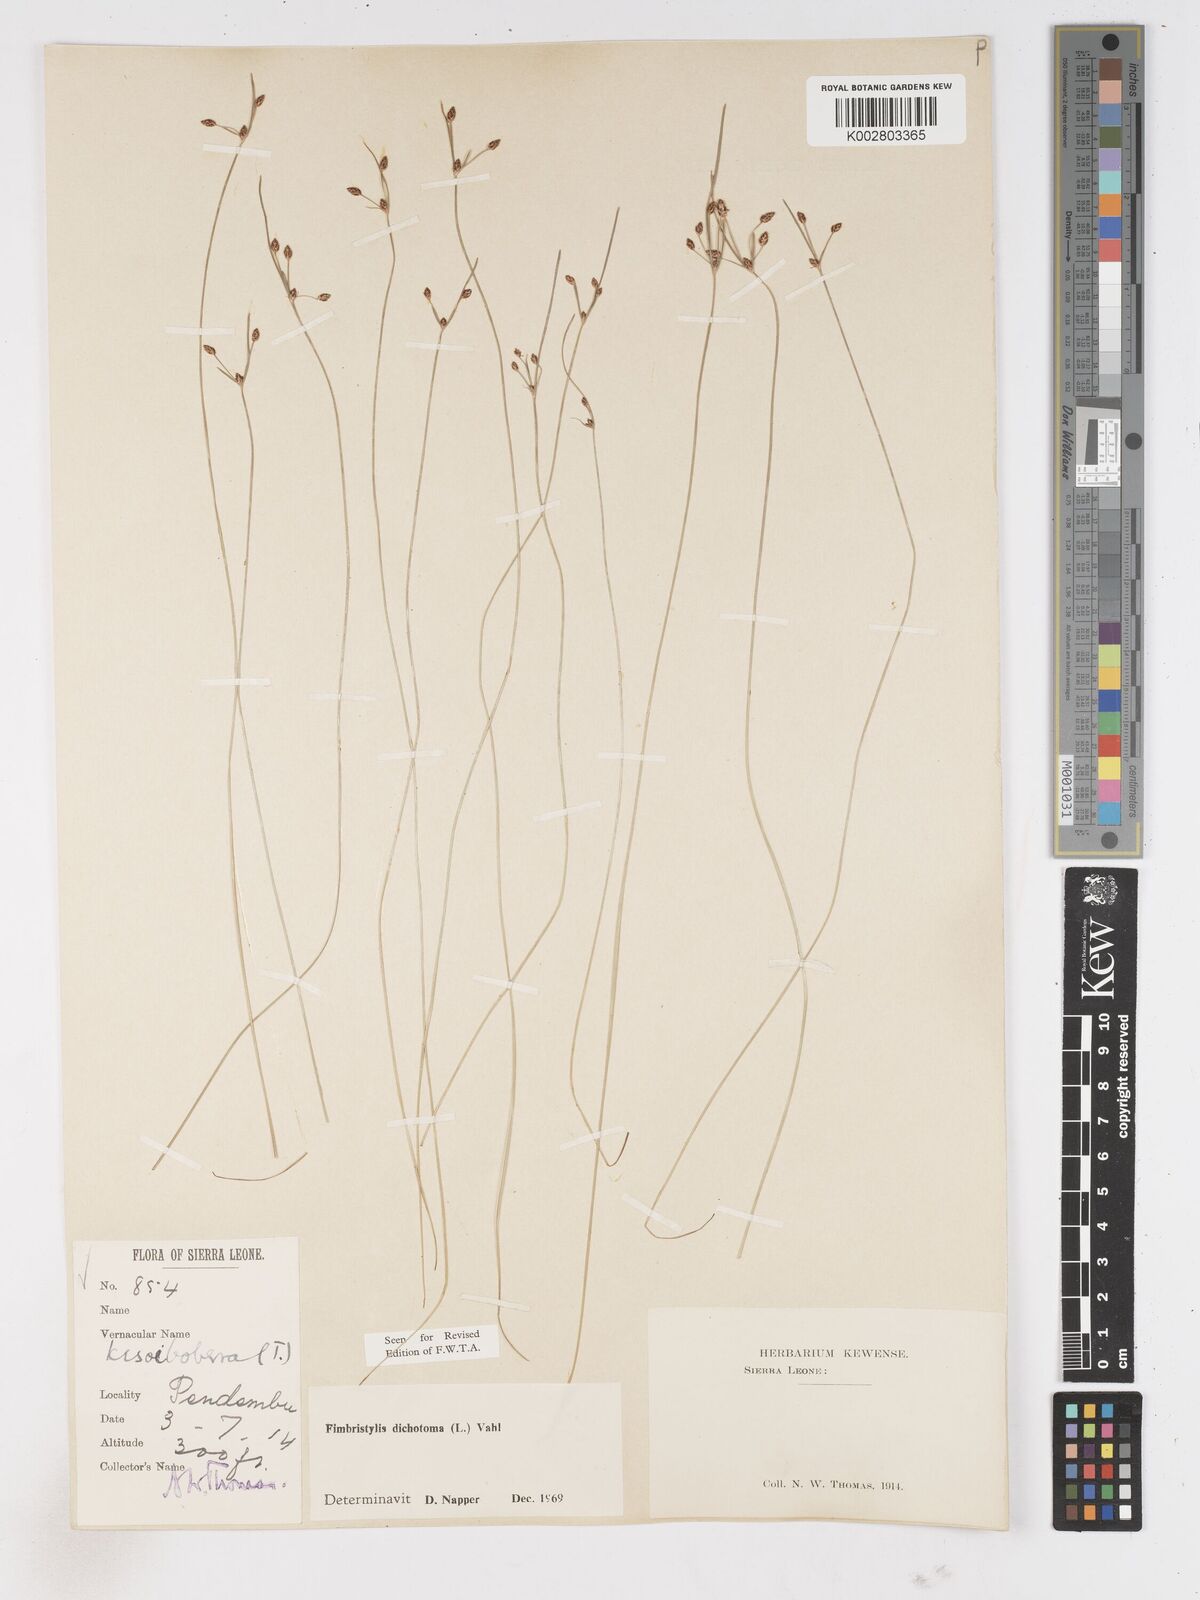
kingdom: Plantae
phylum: Tracheophyta
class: Liliopsida
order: Poales
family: Cyperaceae
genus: Fimbristylis
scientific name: Fimbristylis dichotoma
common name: Forked fimbry
